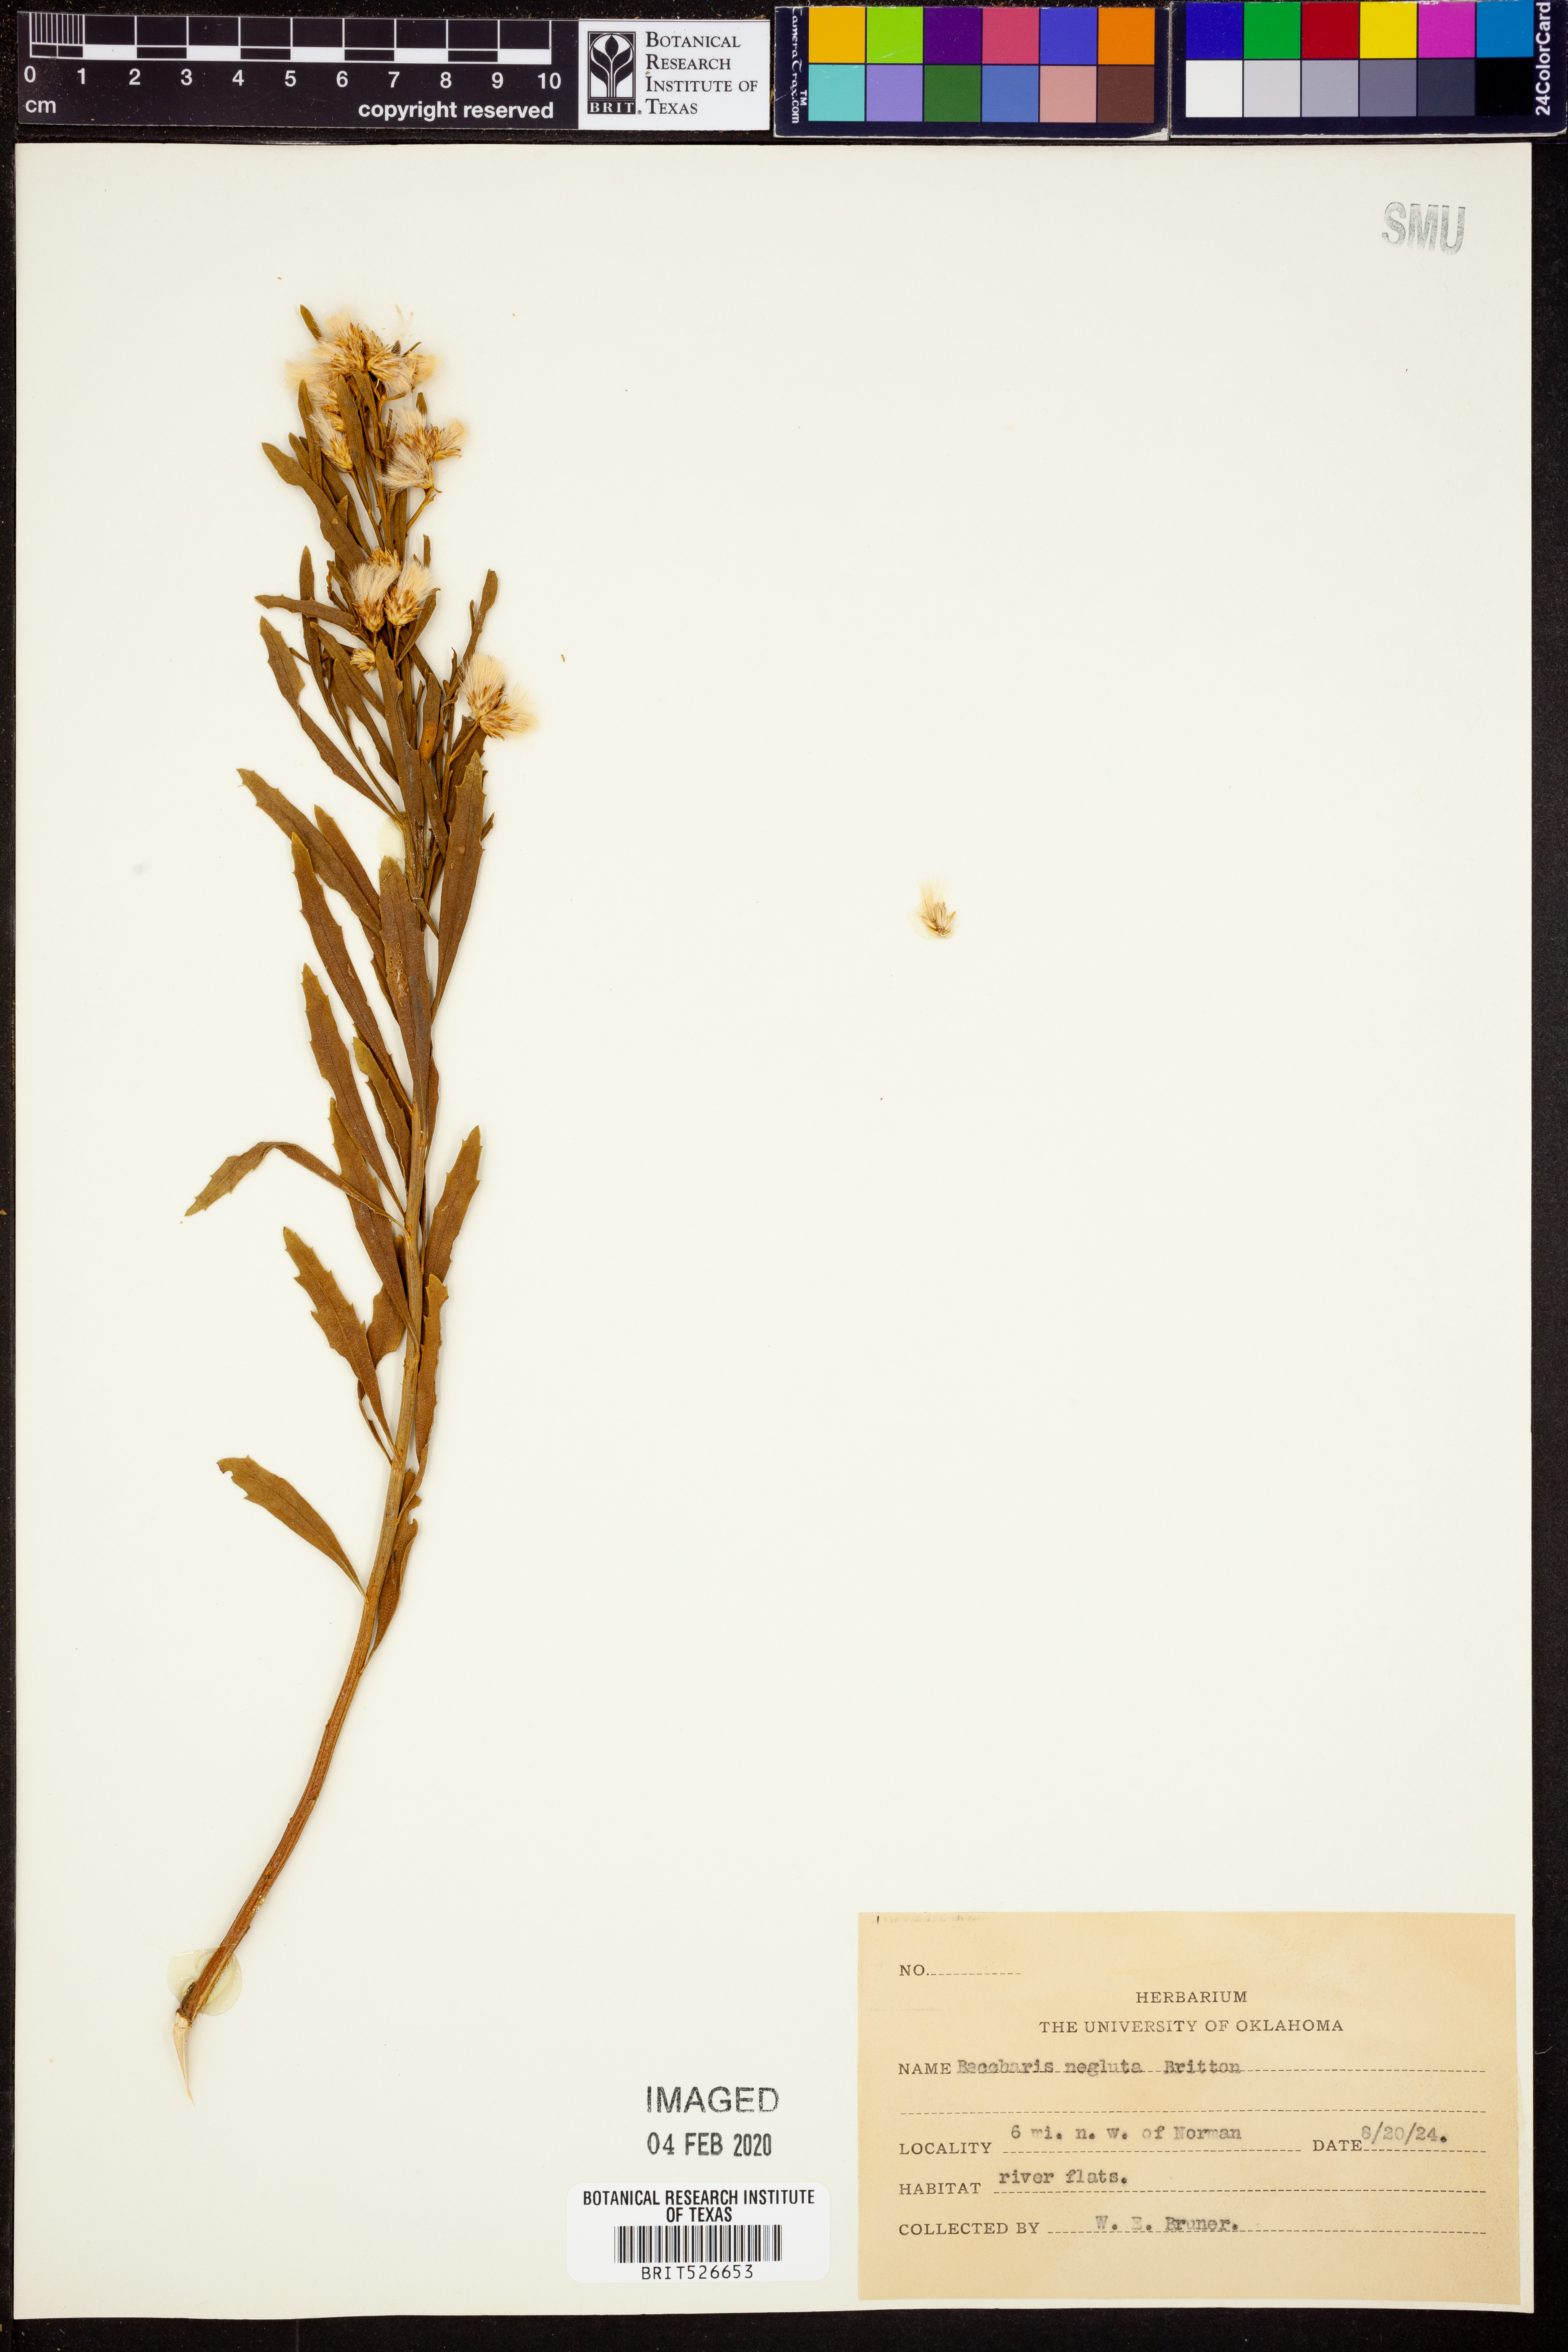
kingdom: Plantae
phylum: Tracheophyta
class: Magnoliopsida
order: Asterales
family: Asteraceae
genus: Baccharis
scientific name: Baccharis neglecta
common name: Roosevelt-weed
